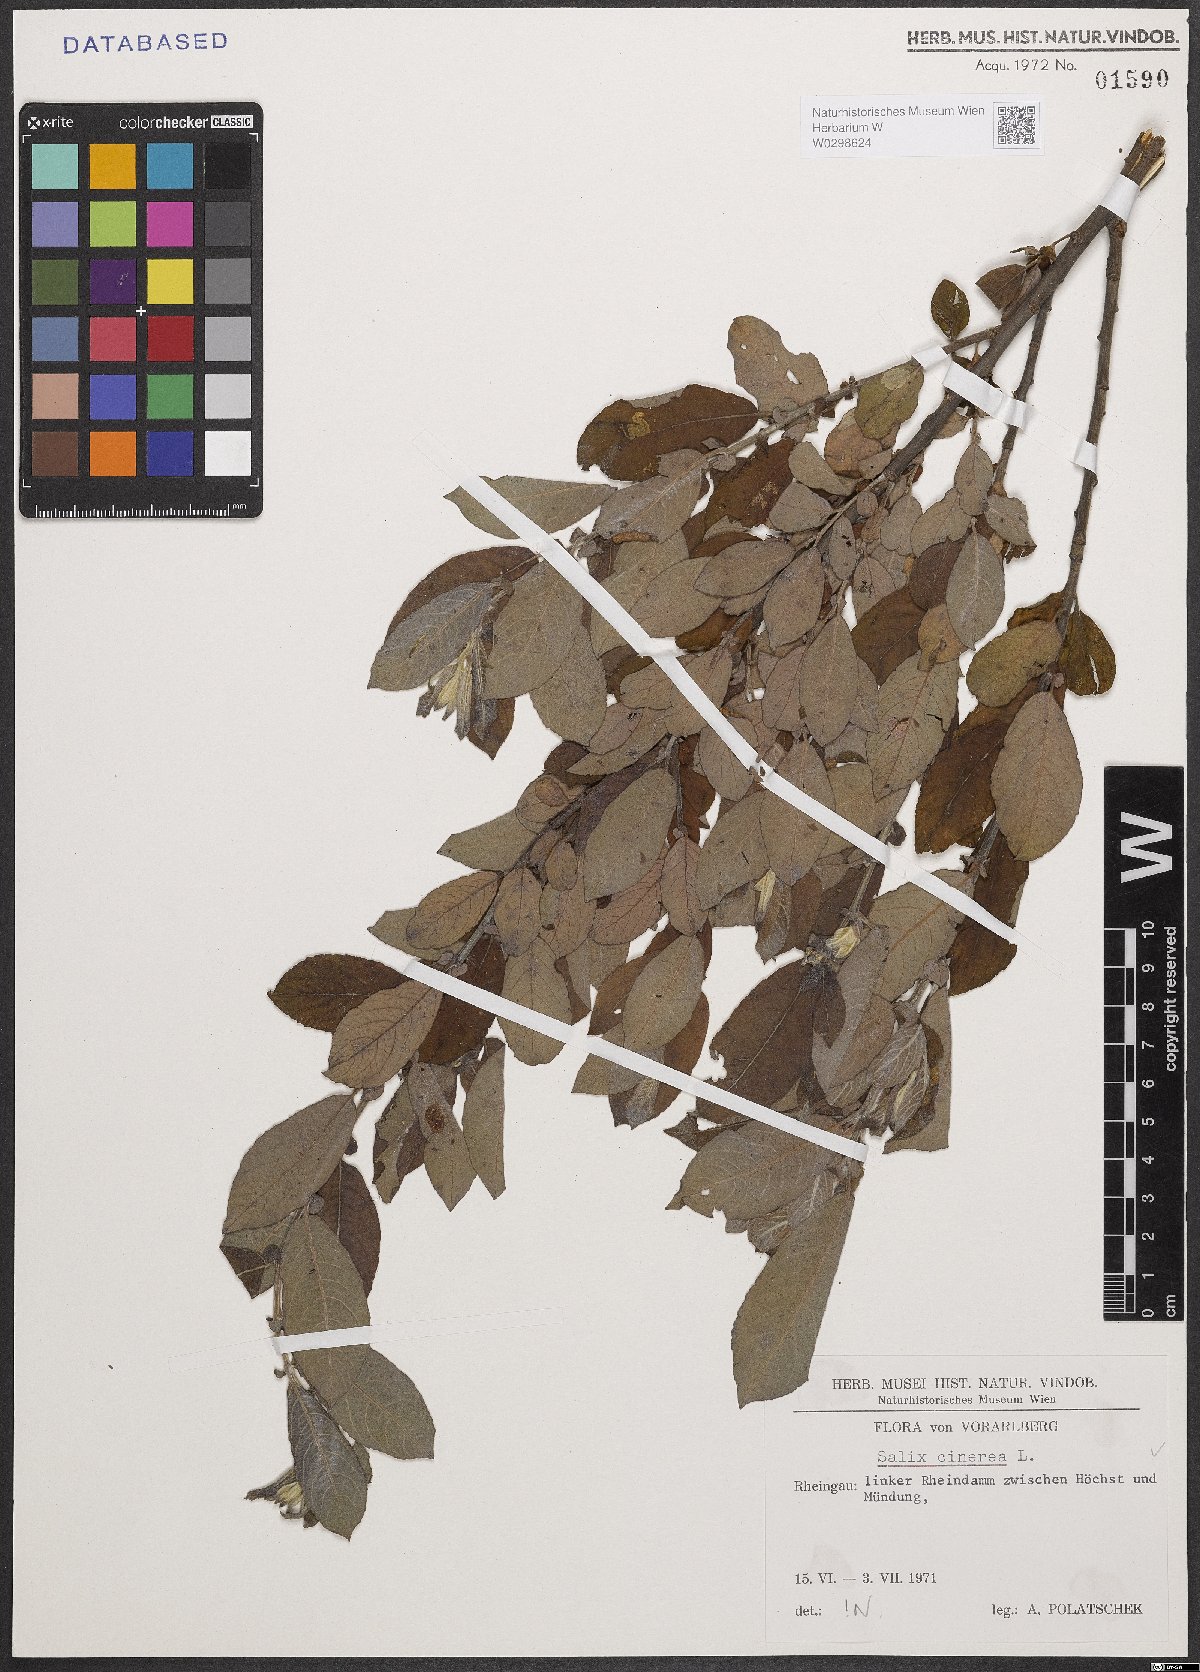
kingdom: Plantae
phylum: Tracheophyta
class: Magnoliopsida
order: Malpighiales
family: Salicaceae
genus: Salix
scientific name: Salix cinerea
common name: Common sallow
